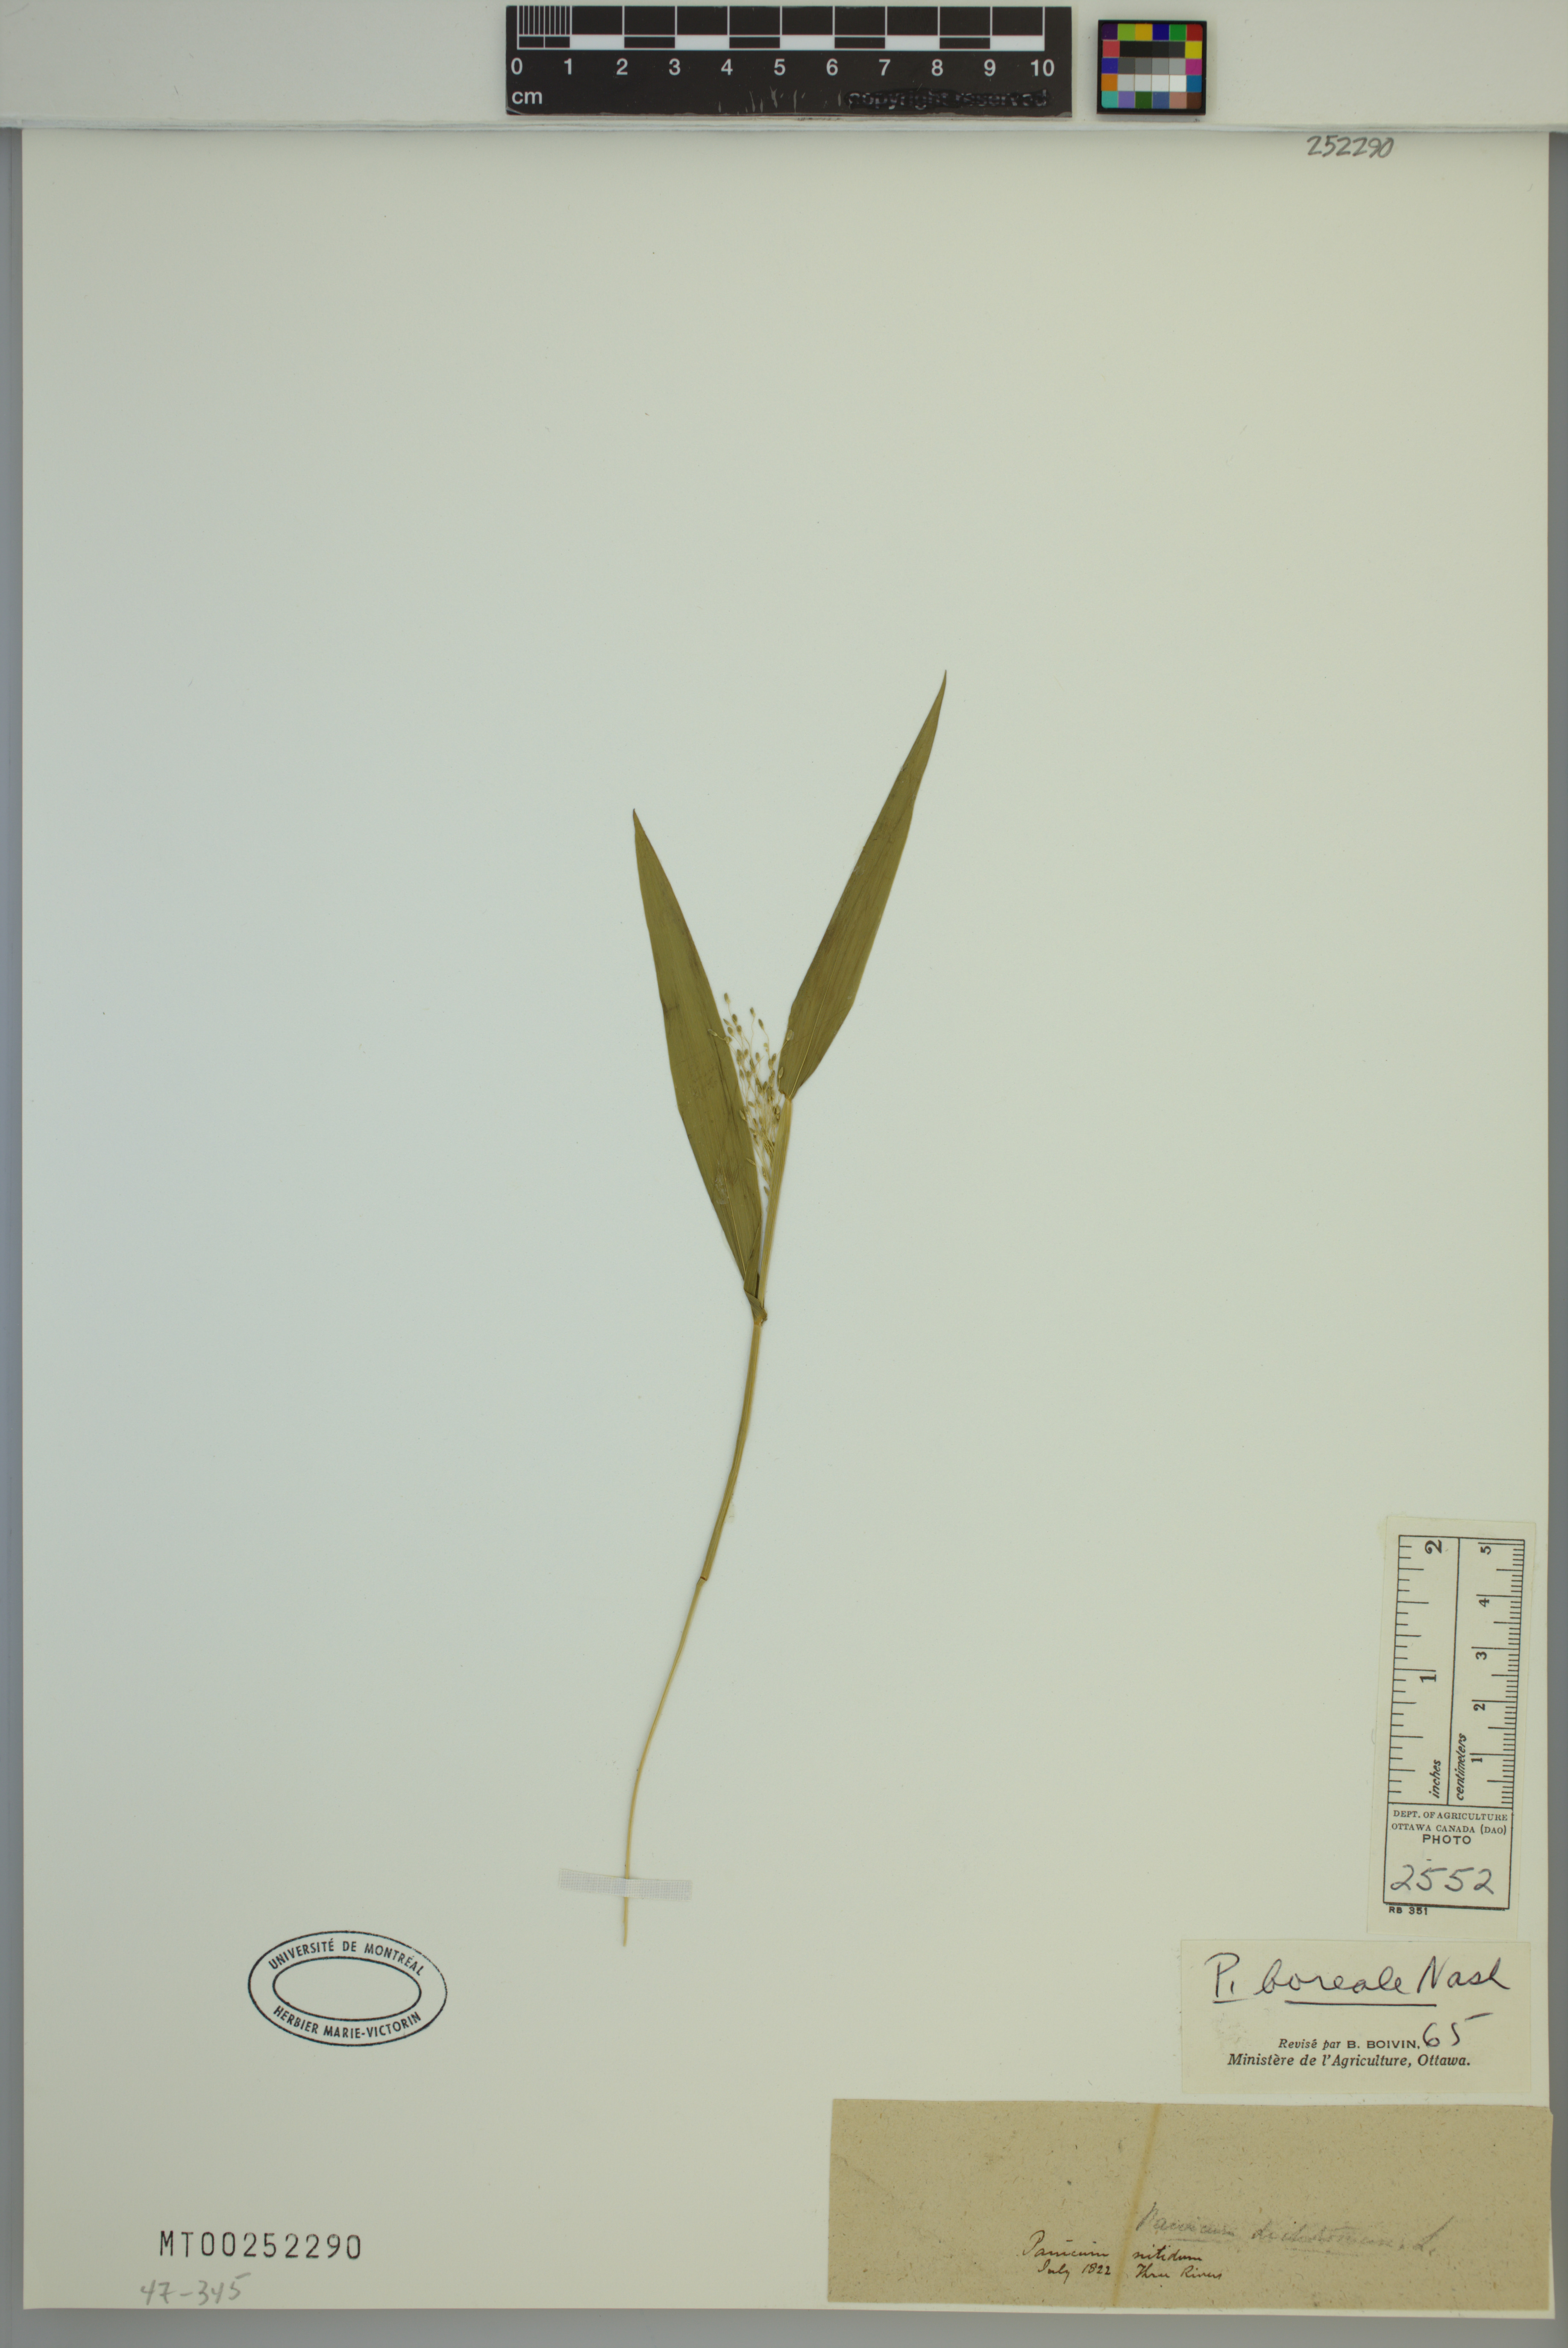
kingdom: Plantae
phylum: Tracheophyta
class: Liliopsida
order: Poales
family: Poaceae
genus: Dichanthelium
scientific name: Dichanthelium boreale
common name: Northern panicgrass
